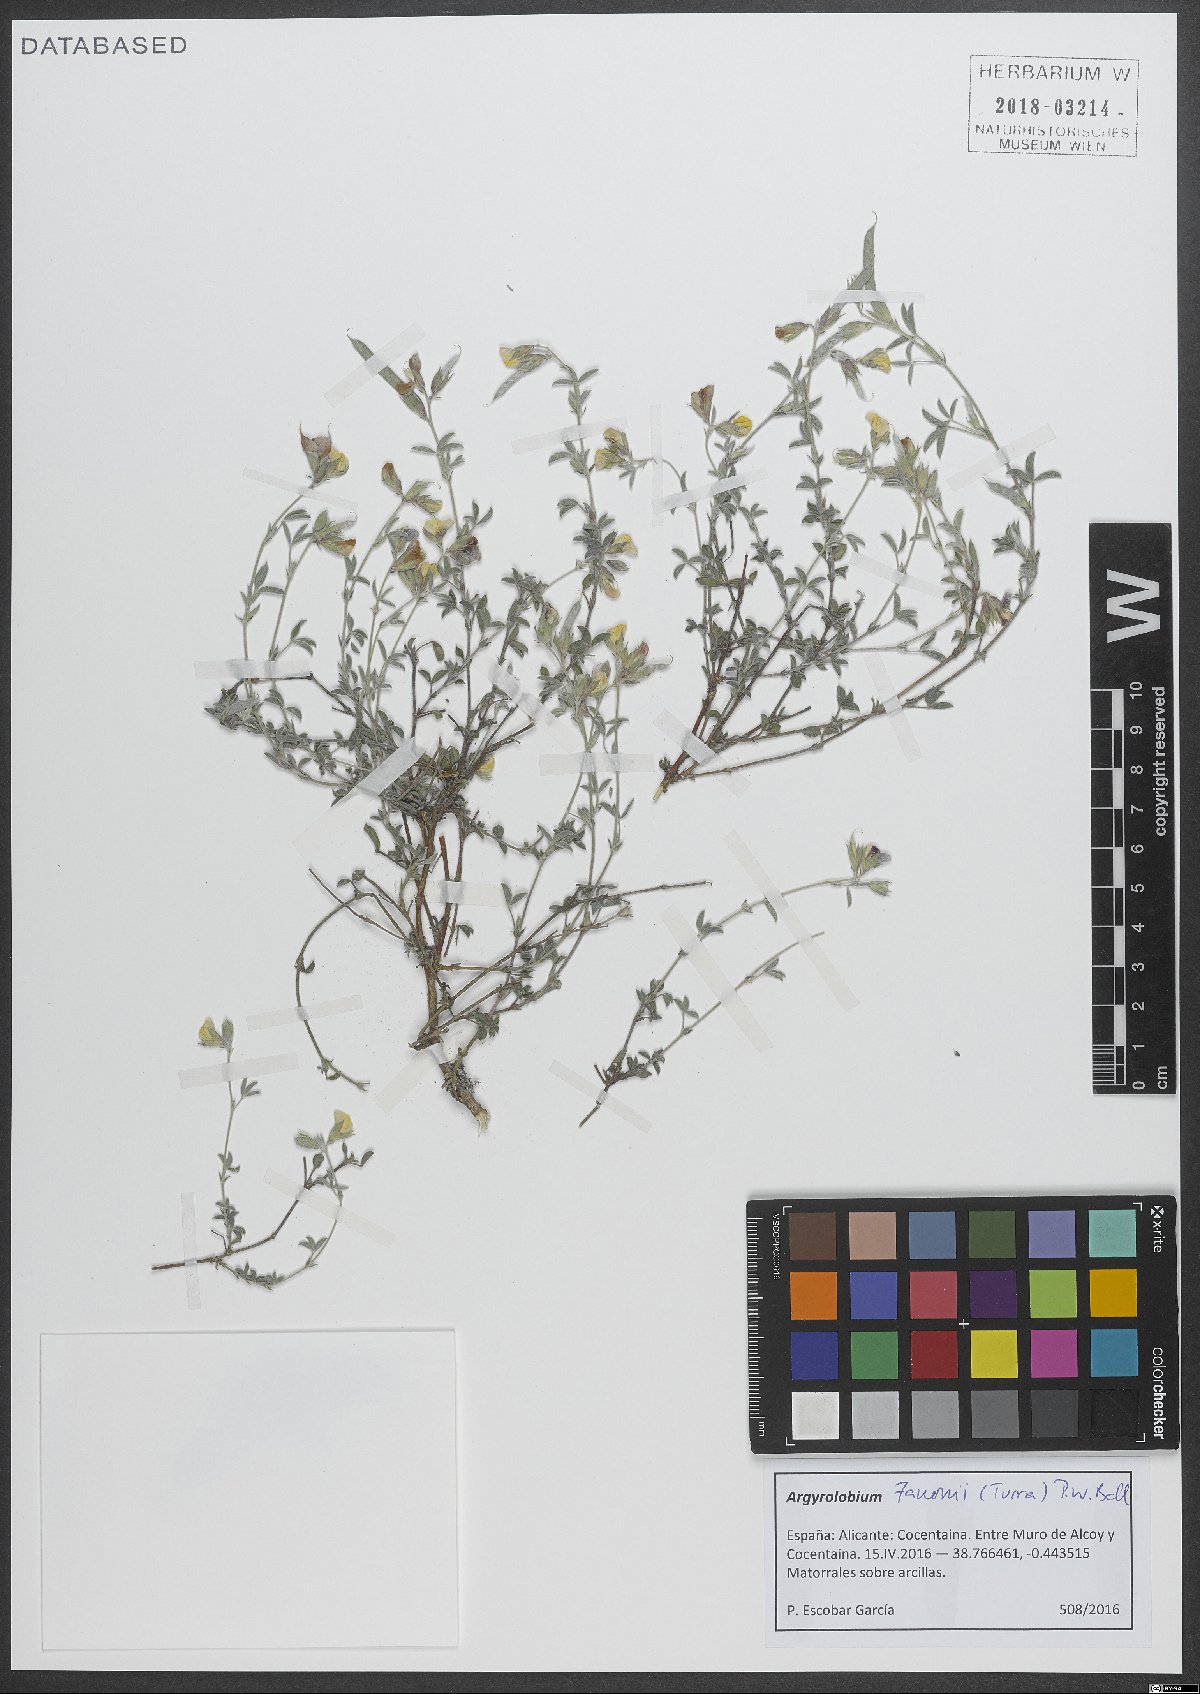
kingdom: Plantae
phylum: Tracheophyta
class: Magnoliopsida
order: Fabales
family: Fabaceae
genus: Argyrolobium
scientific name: Argyrolobium zanonii
